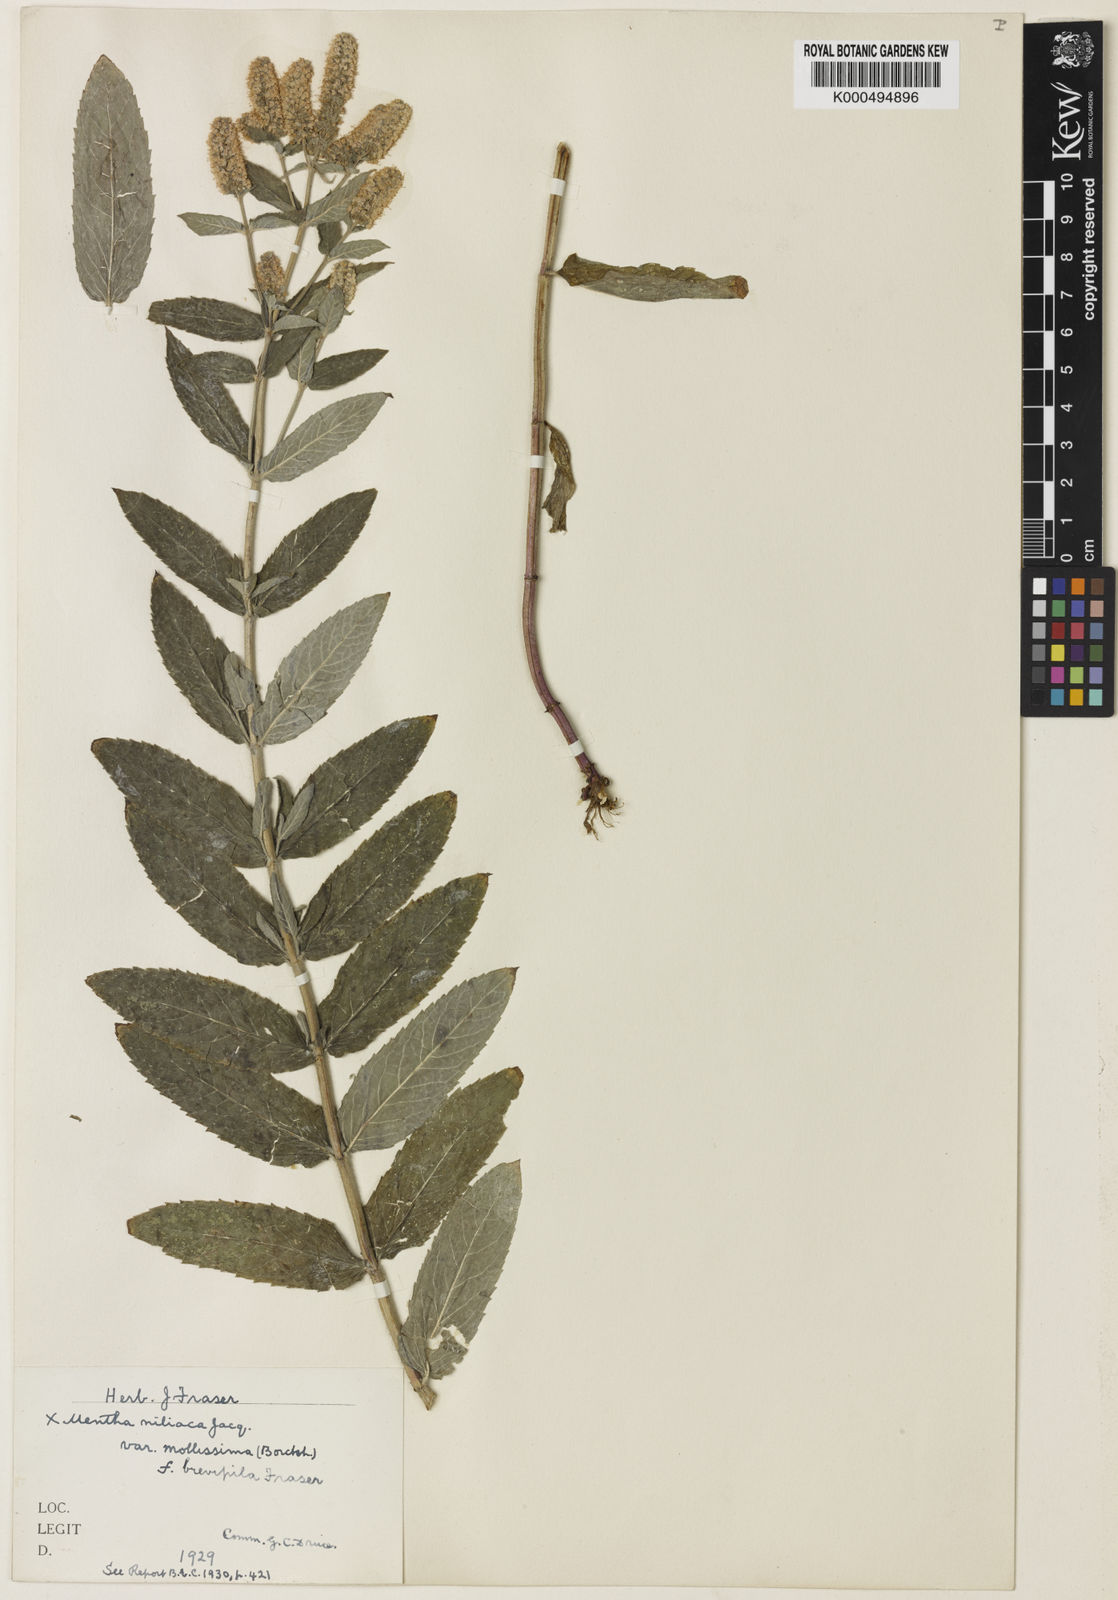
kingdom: Plantae
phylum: Tracheophyta
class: Magnoliopsida
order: Lamiales
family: Lamiaceae
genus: Mentha
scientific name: Mentha villosa
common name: Apple mint
